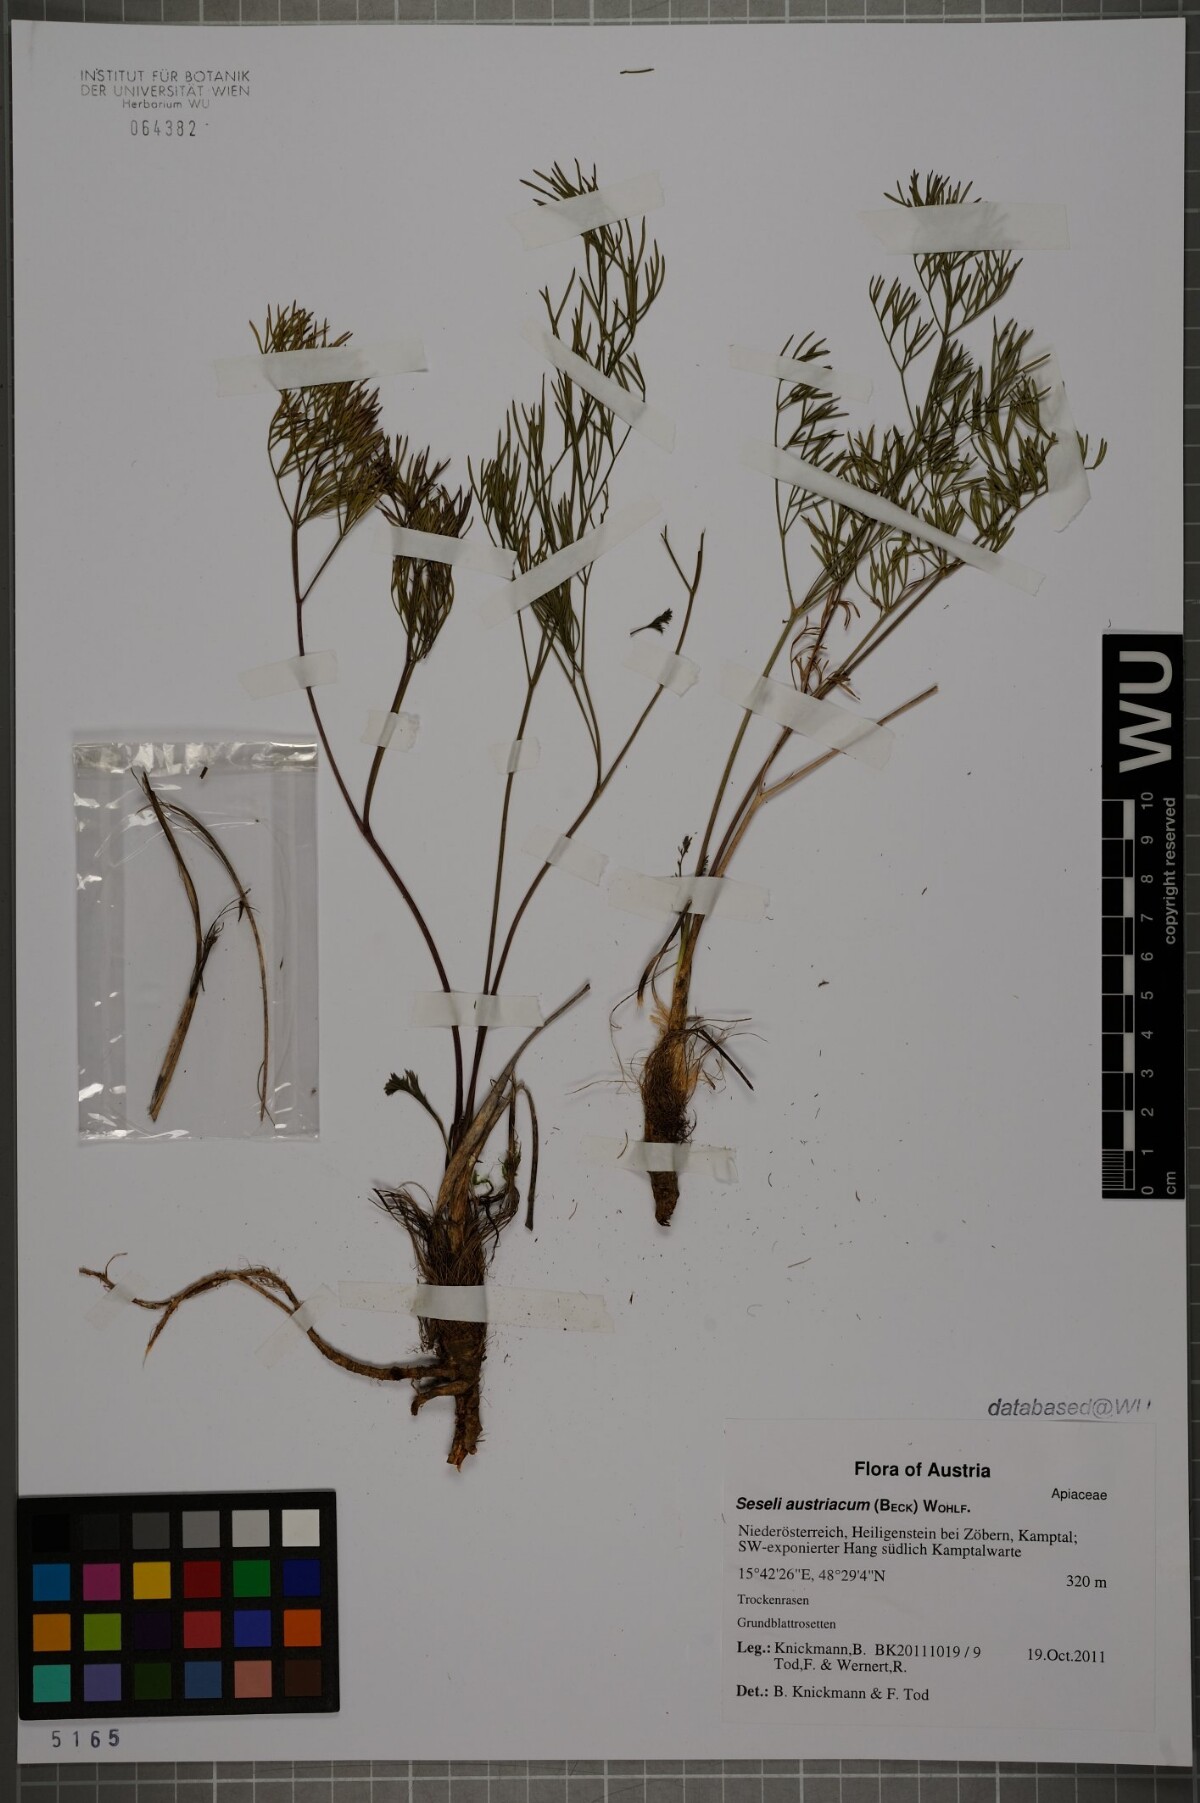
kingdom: Plantae
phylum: Tracheophyta
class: Magnoliopsida
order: Apiales
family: Apiaceae
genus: Seseli
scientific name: Seseli austriacum
